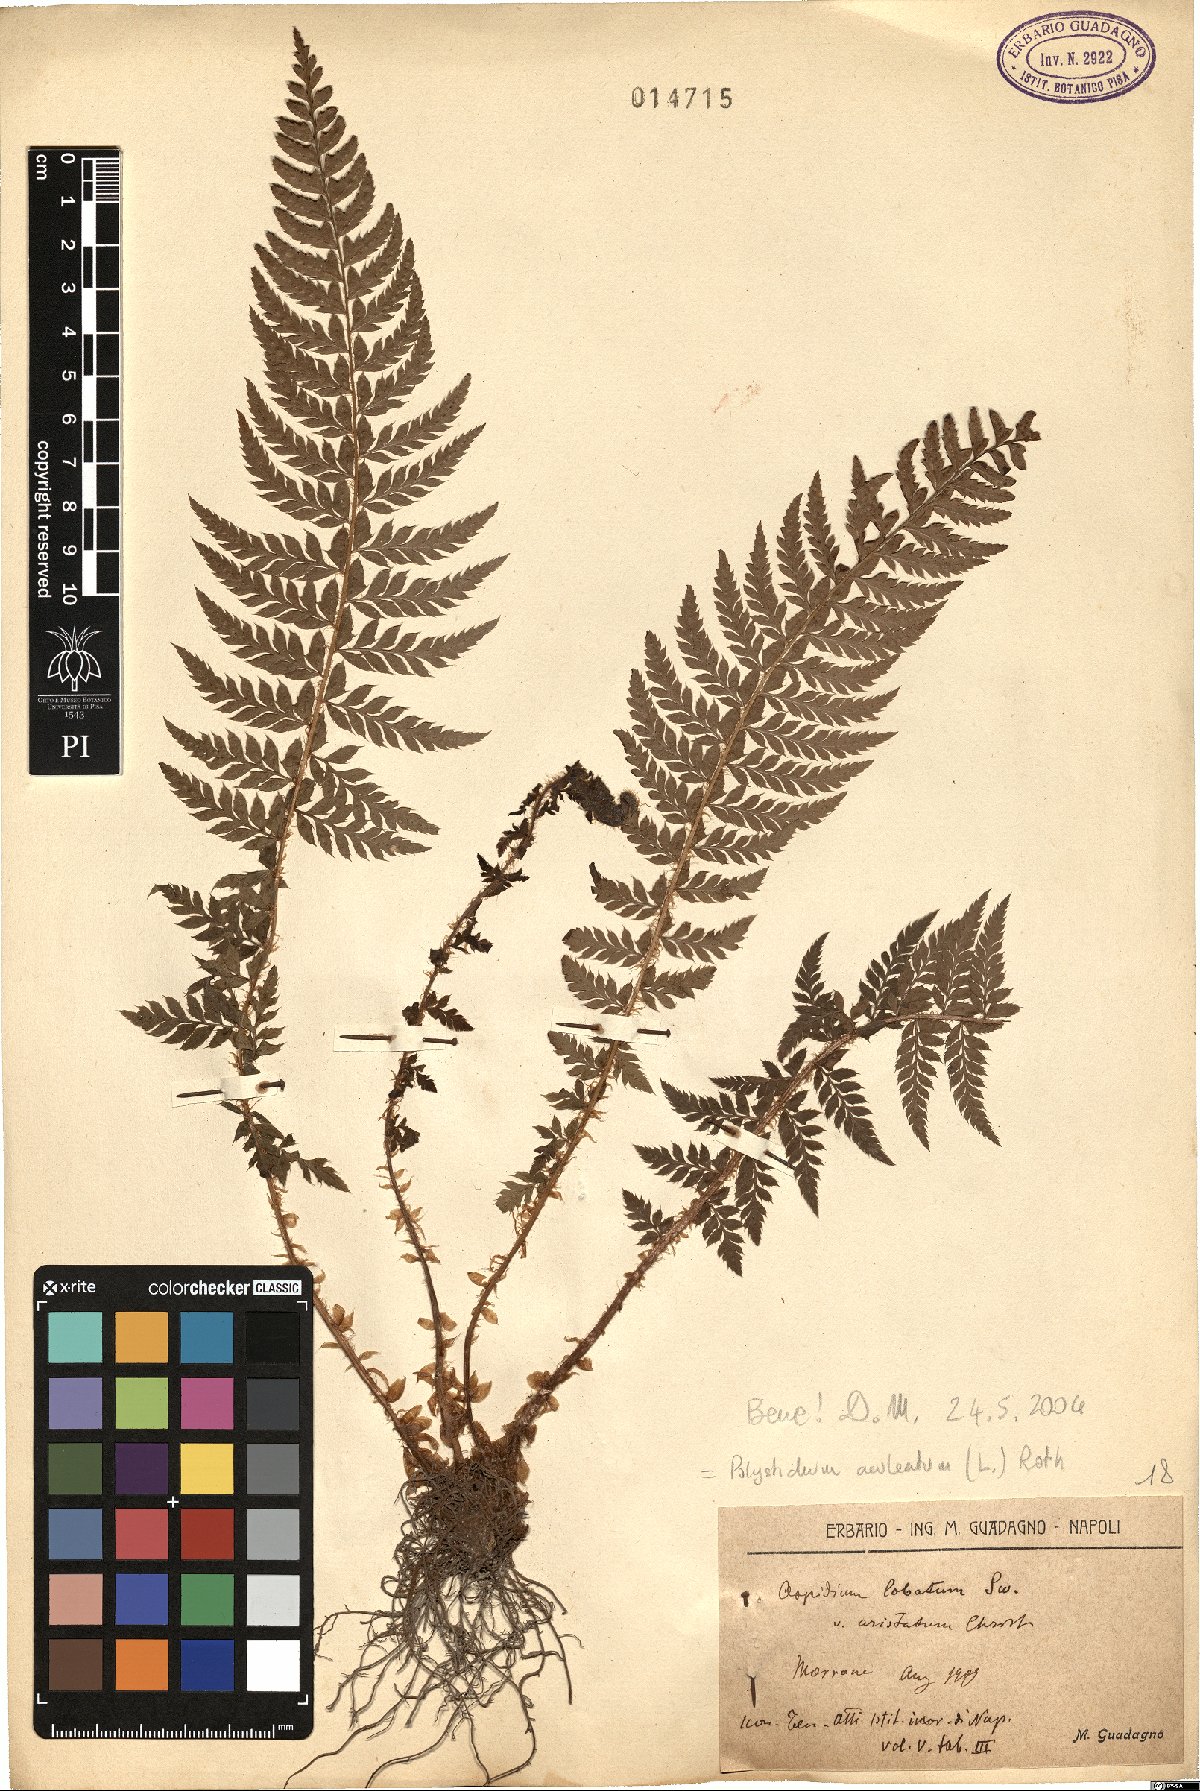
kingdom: Plantae
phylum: Tracheophyta
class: Polypodiopsida
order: Polypodiales
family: Dryopteridaceae
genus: Polystichum
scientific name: Polystichum aculeatum
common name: Hard shield-fern
